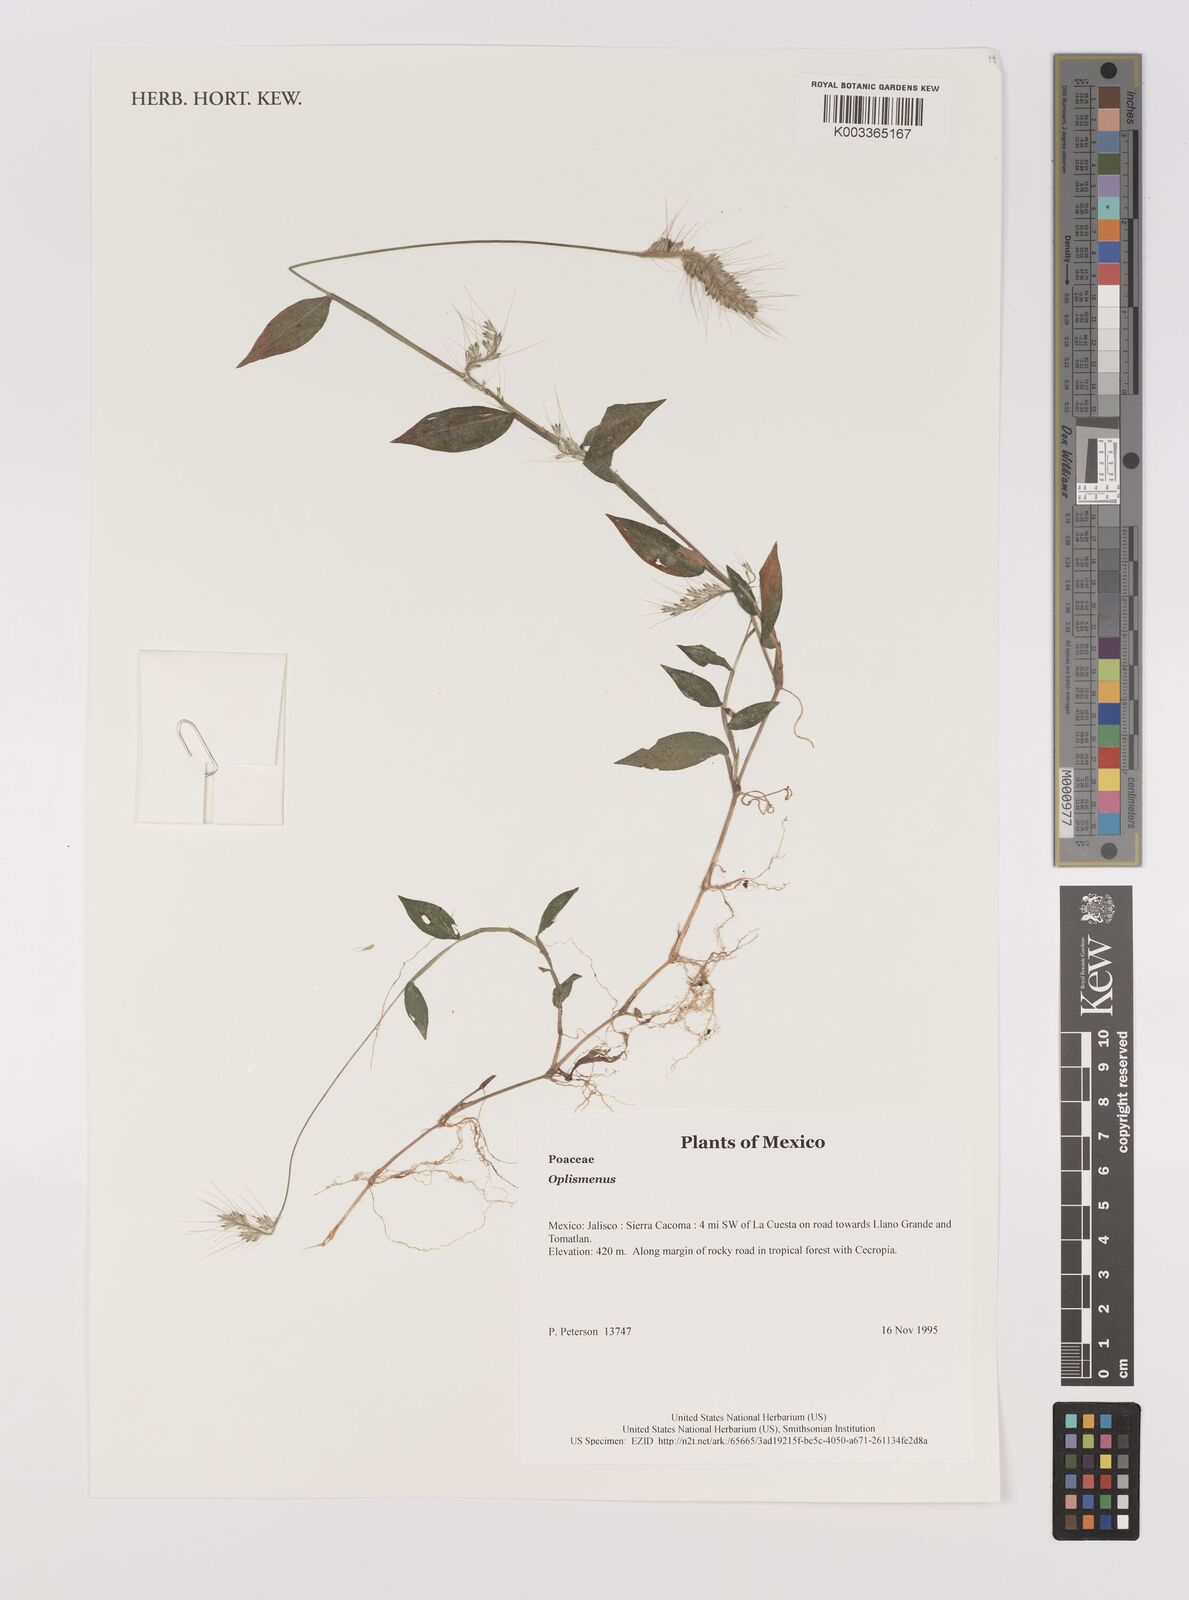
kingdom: Plantae
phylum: Tracheophyta
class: Liliopsida
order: Poales
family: Poaceae
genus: Oplismenus
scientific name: Oplismenus
